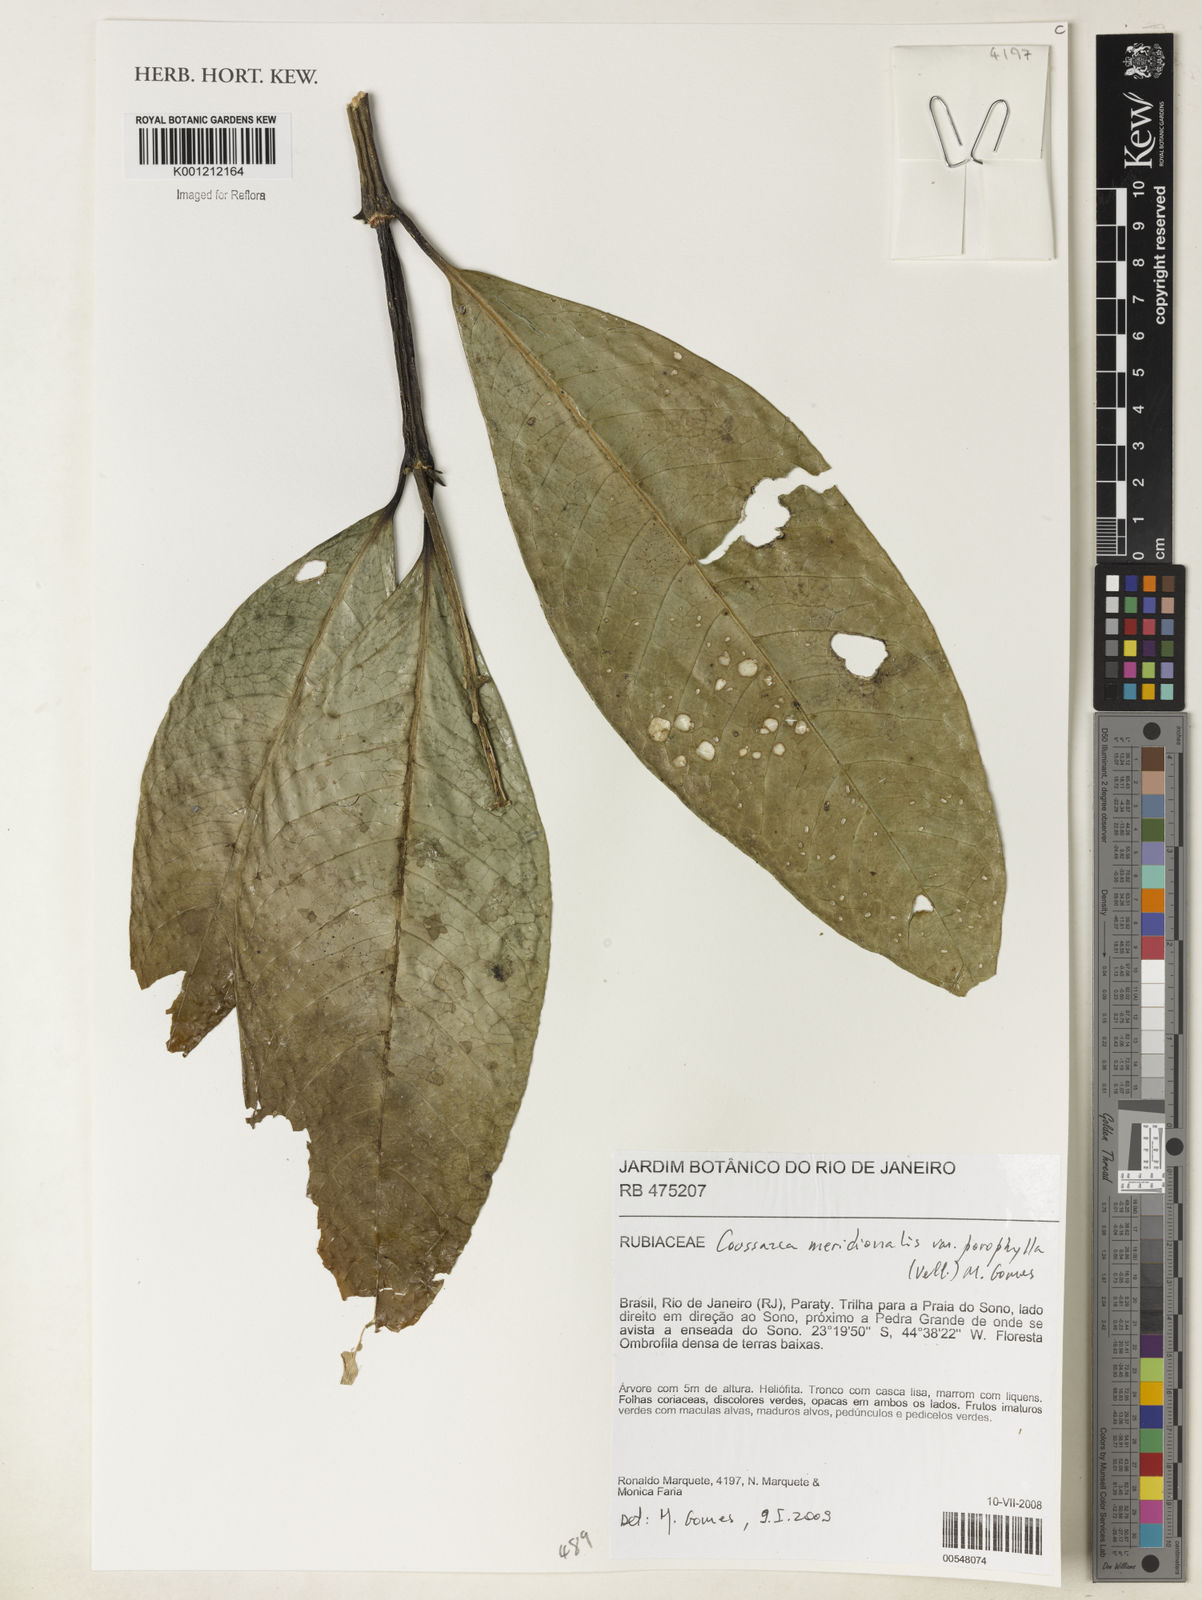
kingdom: Plantae
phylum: Tracheophyta
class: Magnoliopsida
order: Gentianales
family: Rubiaceae
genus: Coussarea
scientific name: Coussarea
